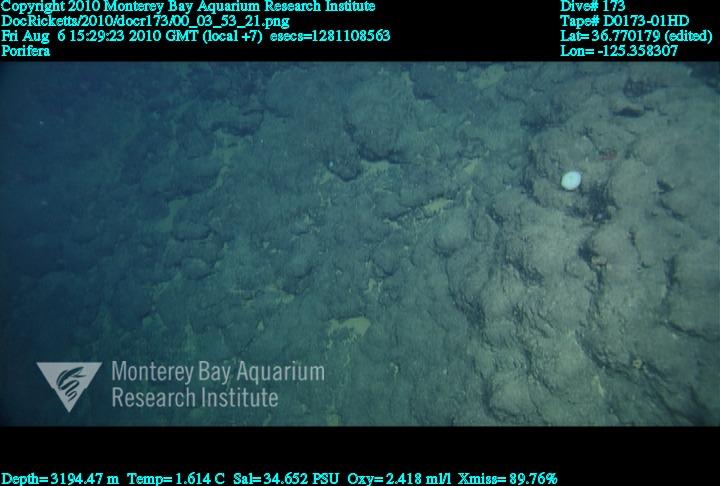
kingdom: Animalia
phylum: Porifera
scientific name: Porifera
